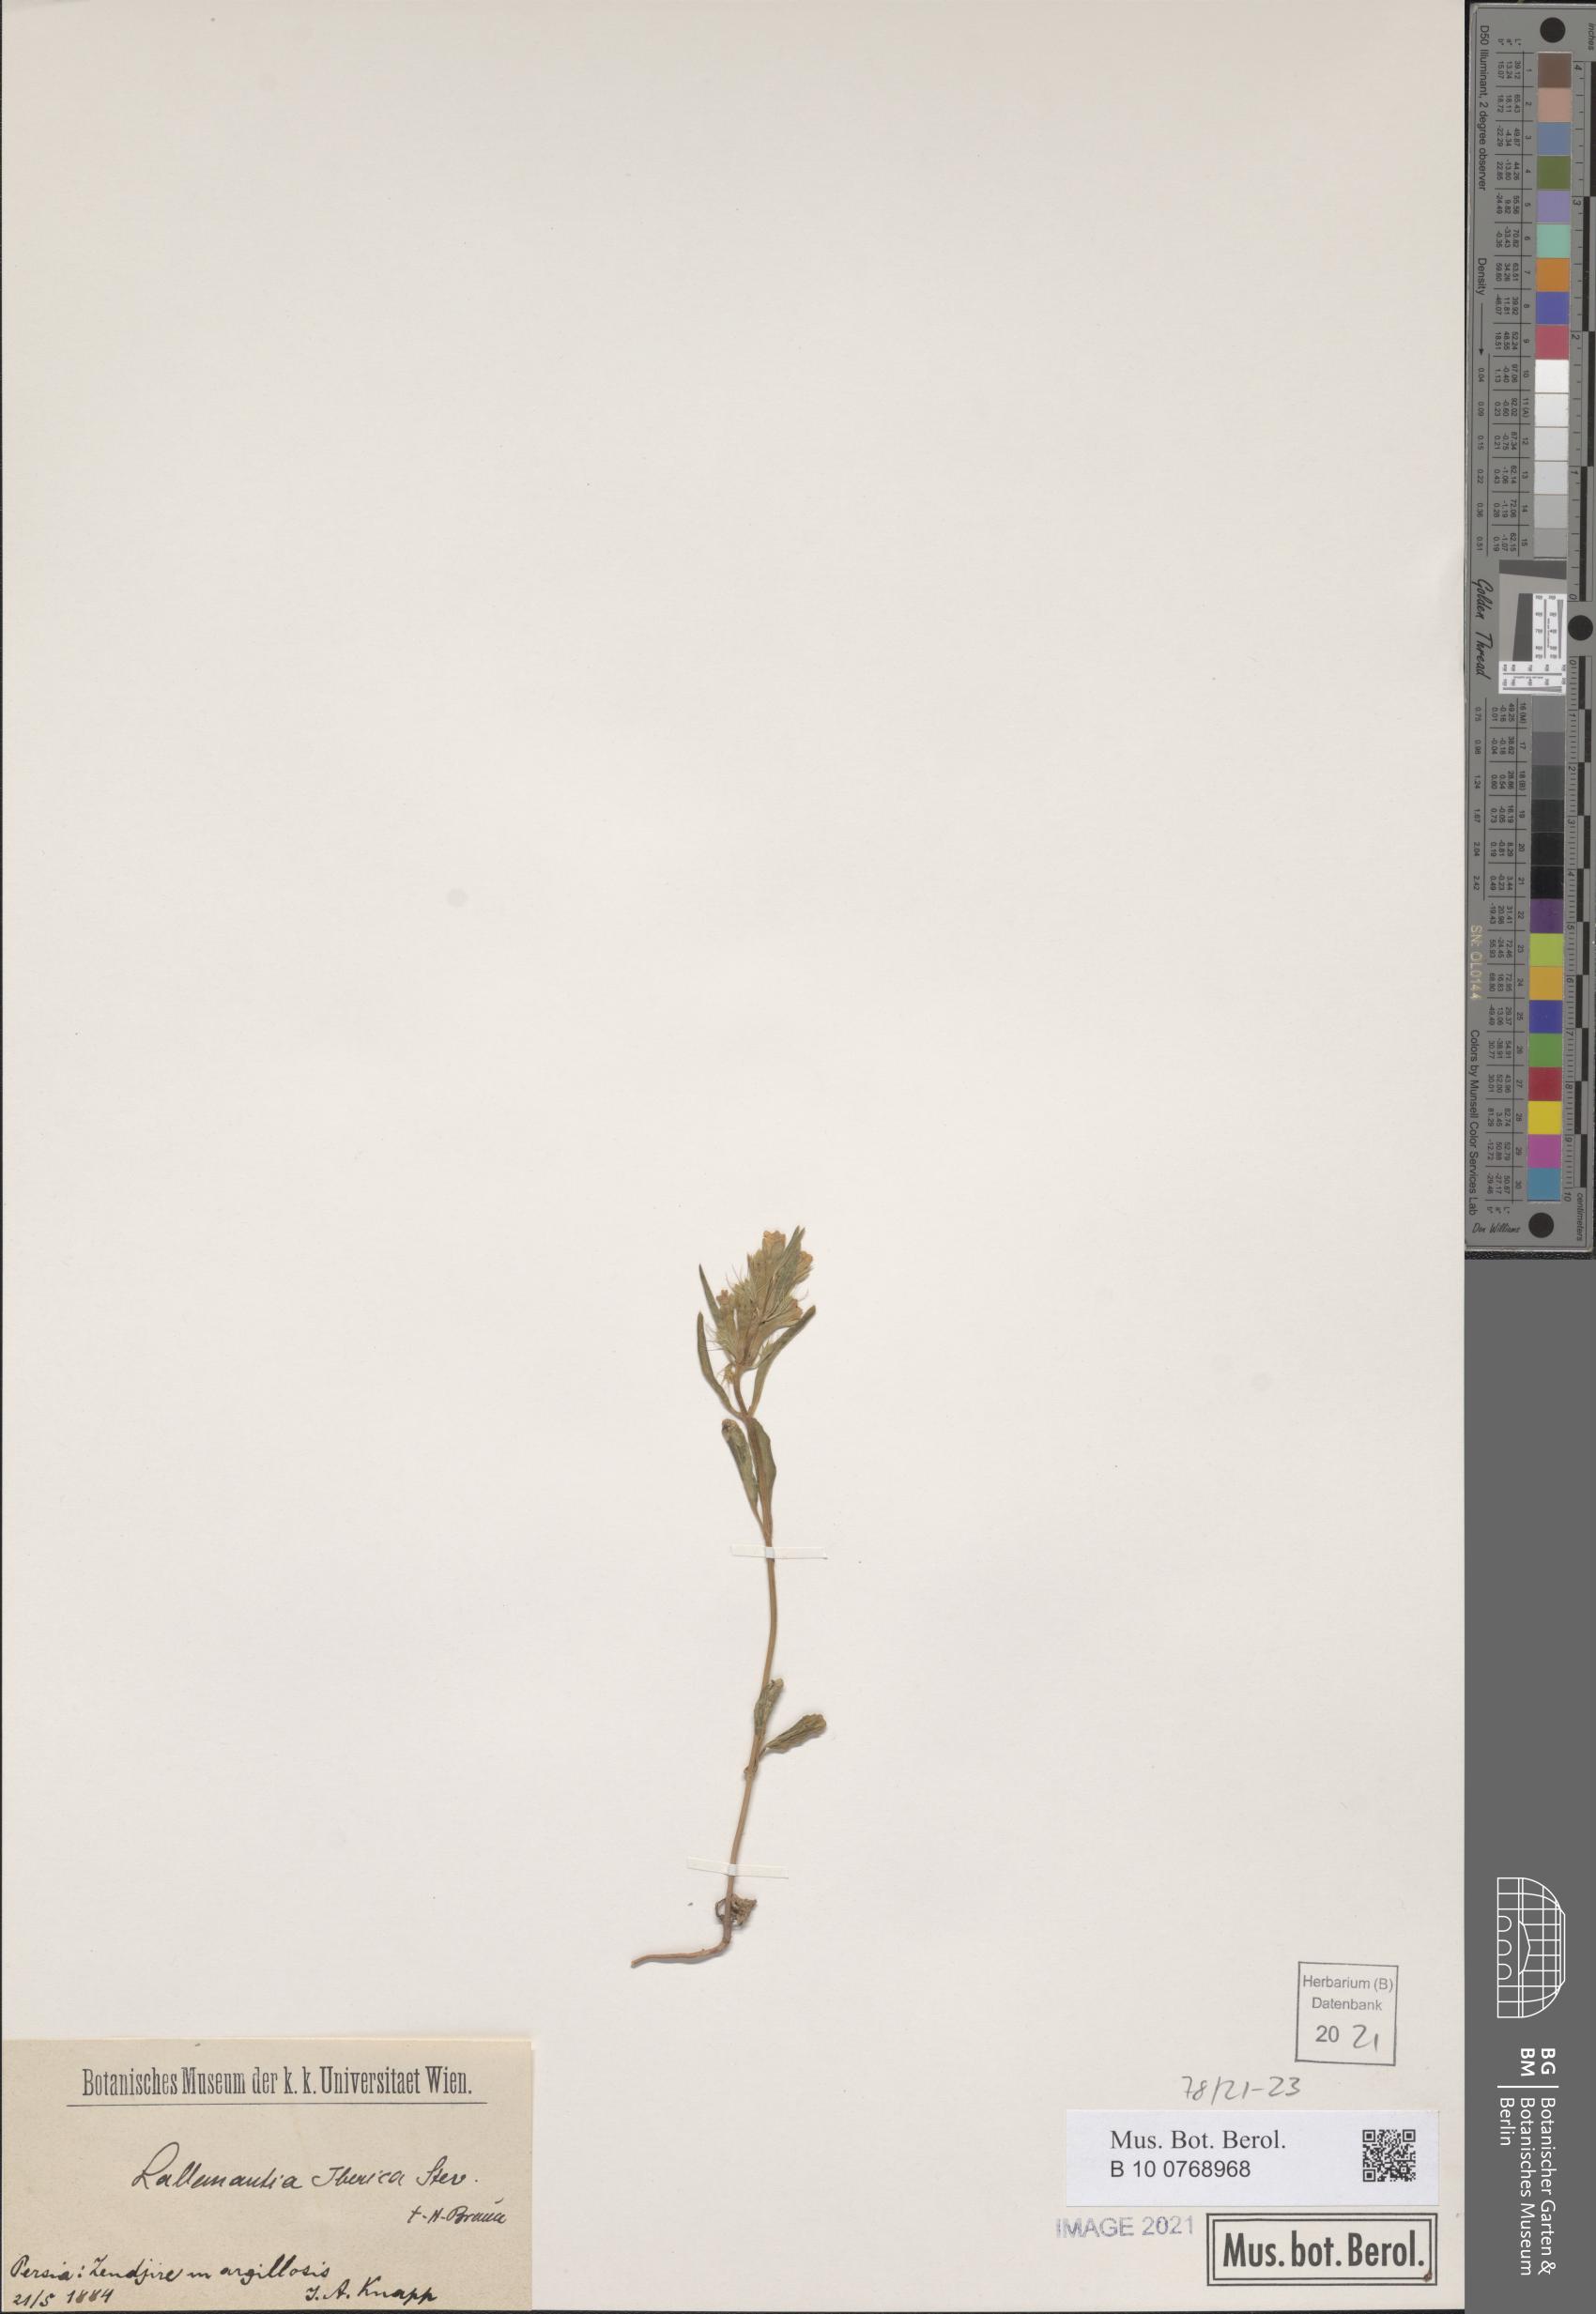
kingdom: Plantae
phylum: Tracheophyta
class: Magnoliopsida
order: Lamiales
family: Lamiaceae
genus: Lallemantia
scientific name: Lallemantia iberica
